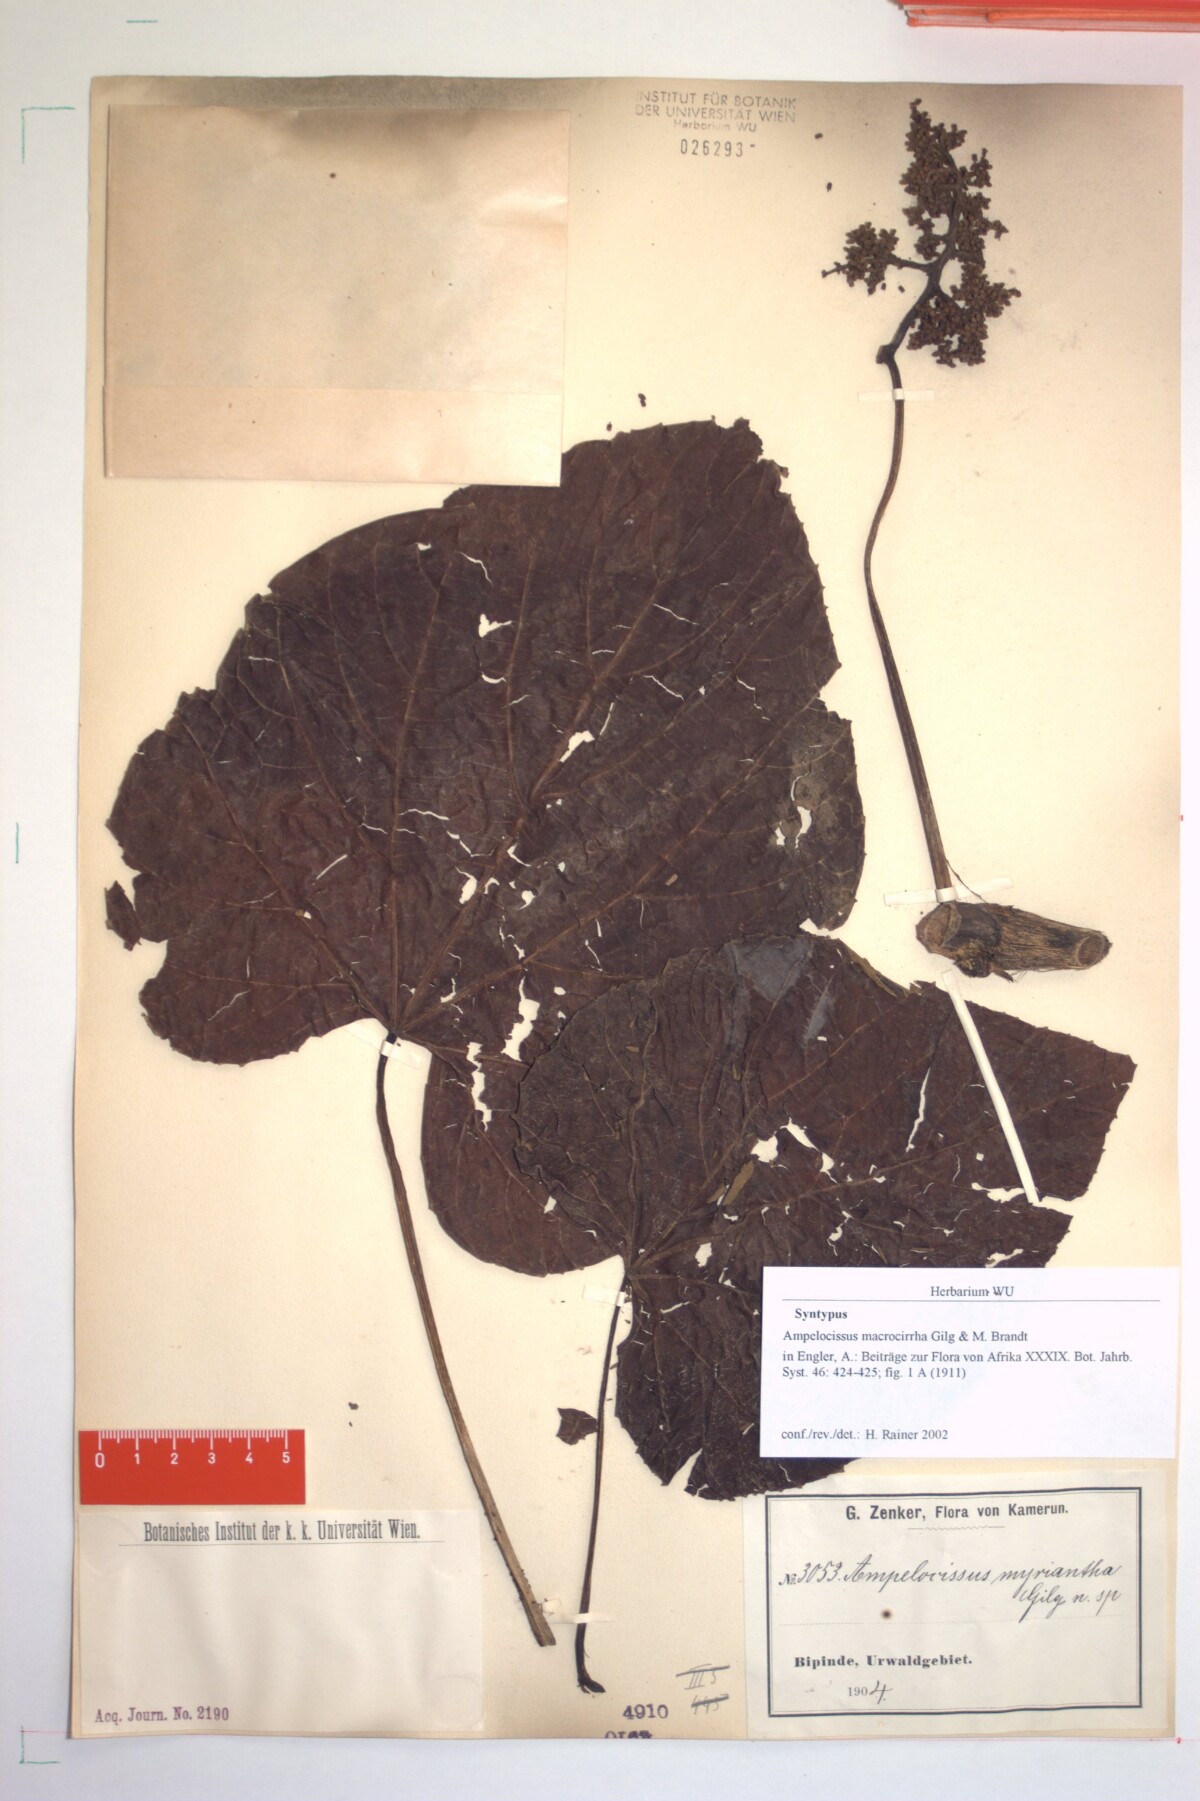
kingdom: Plantae
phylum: Tracheophyta
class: Magnoliopsida
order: Vitales
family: Vitaceae
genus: Ampelocissus
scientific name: Ampelocissus macrocirrha
